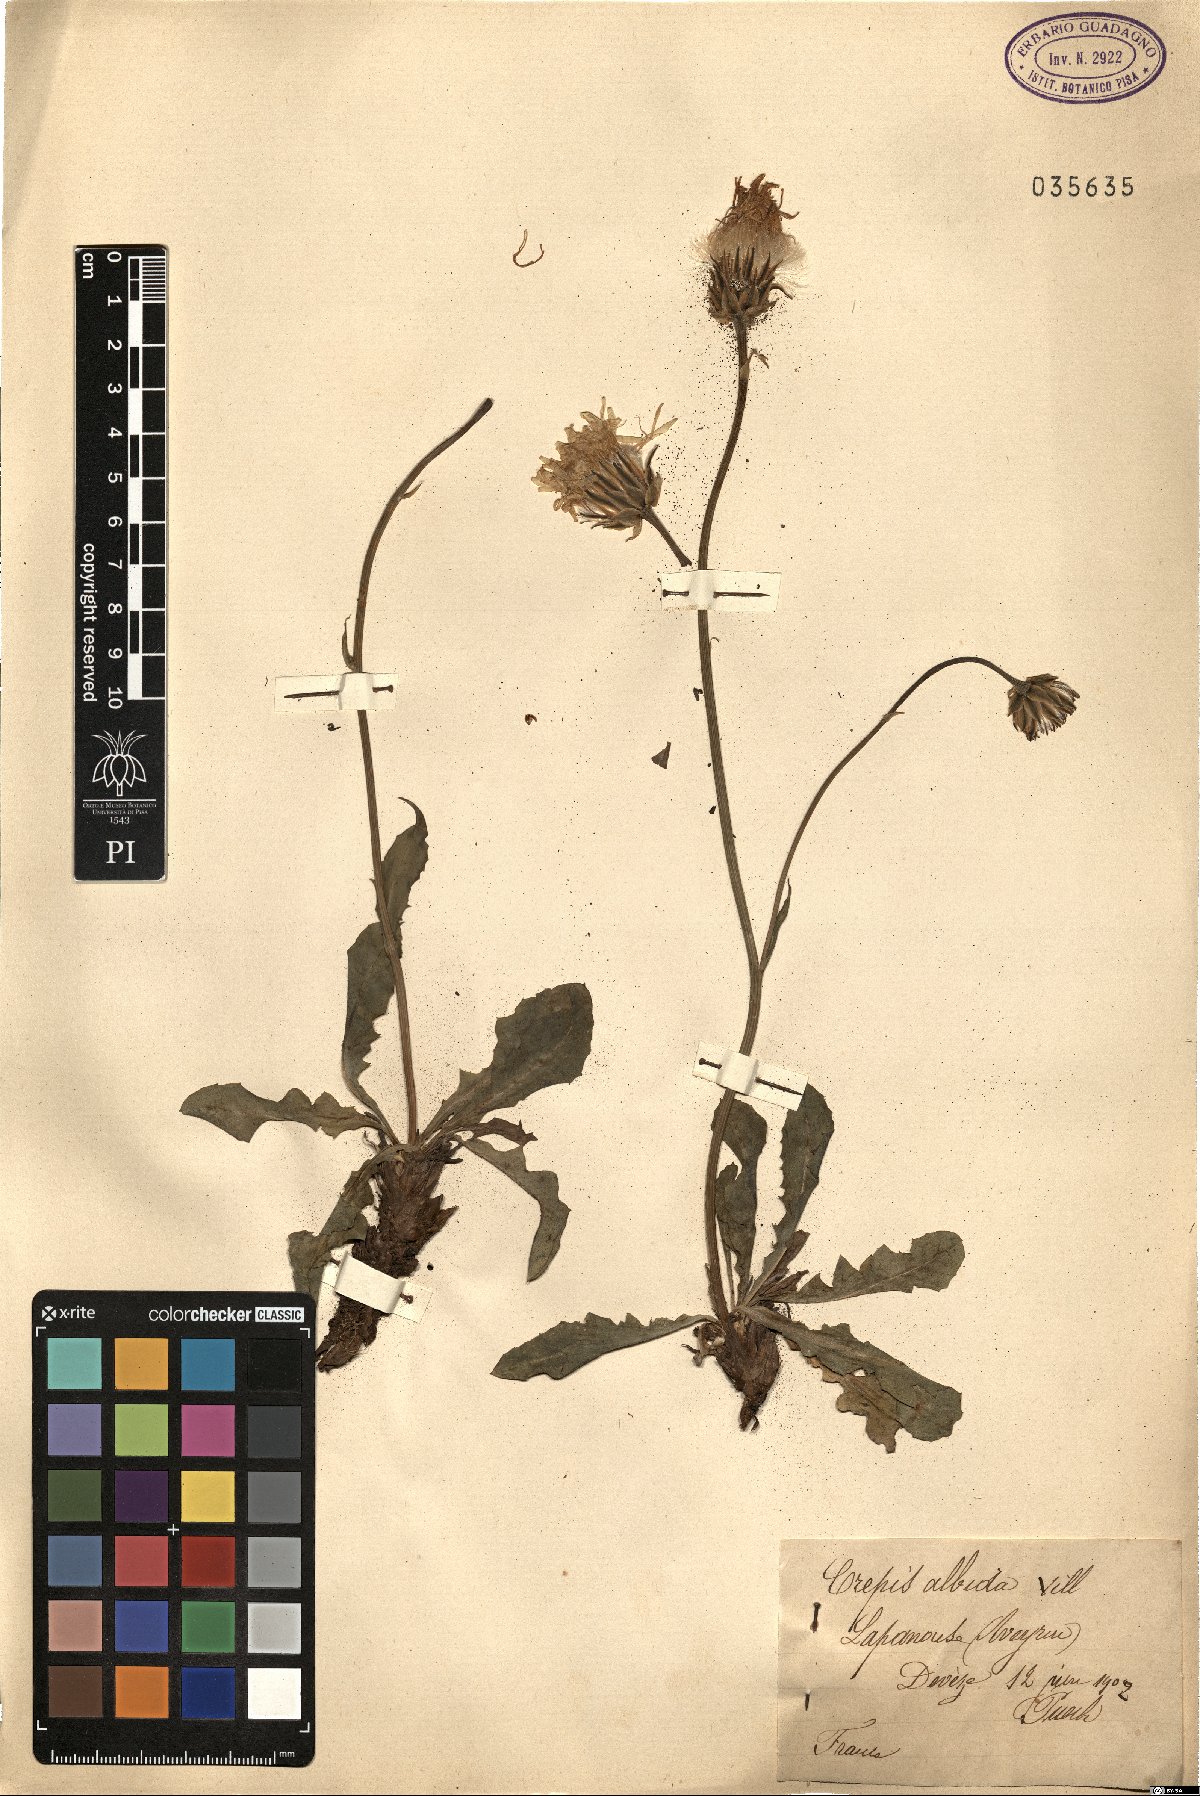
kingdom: Plantae
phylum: Tracheophyta
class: Magnoliopsida
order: Asterales
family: Asteraceae
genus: Crepis
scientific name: Crepis albida
